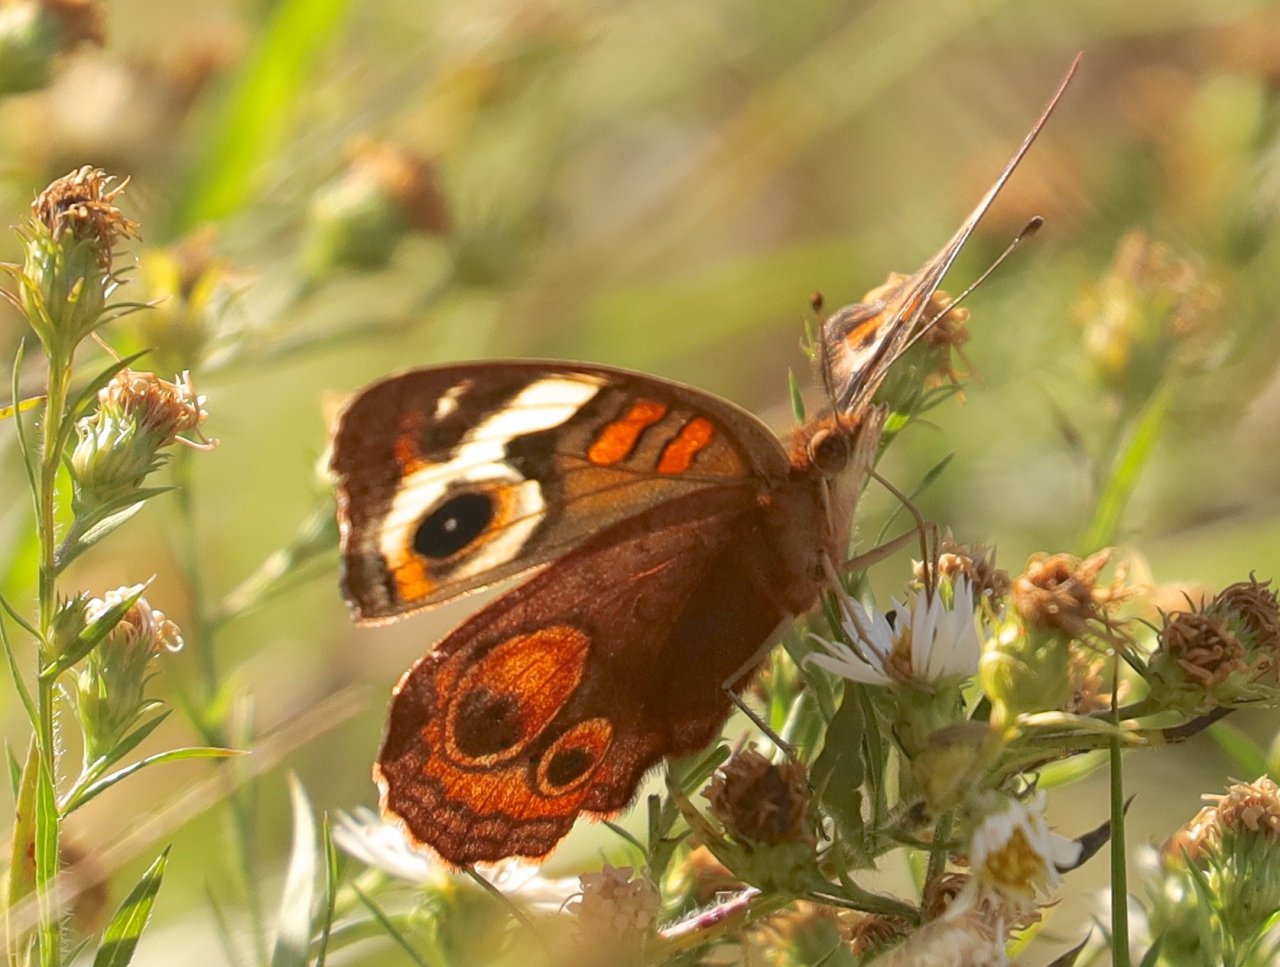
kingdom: Animalia
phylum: Arthropoda
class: Insecta
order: Lepidoptera
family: Nymphalidae
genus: Junonia
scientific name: Junonia coenia
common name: Common Buckeye
